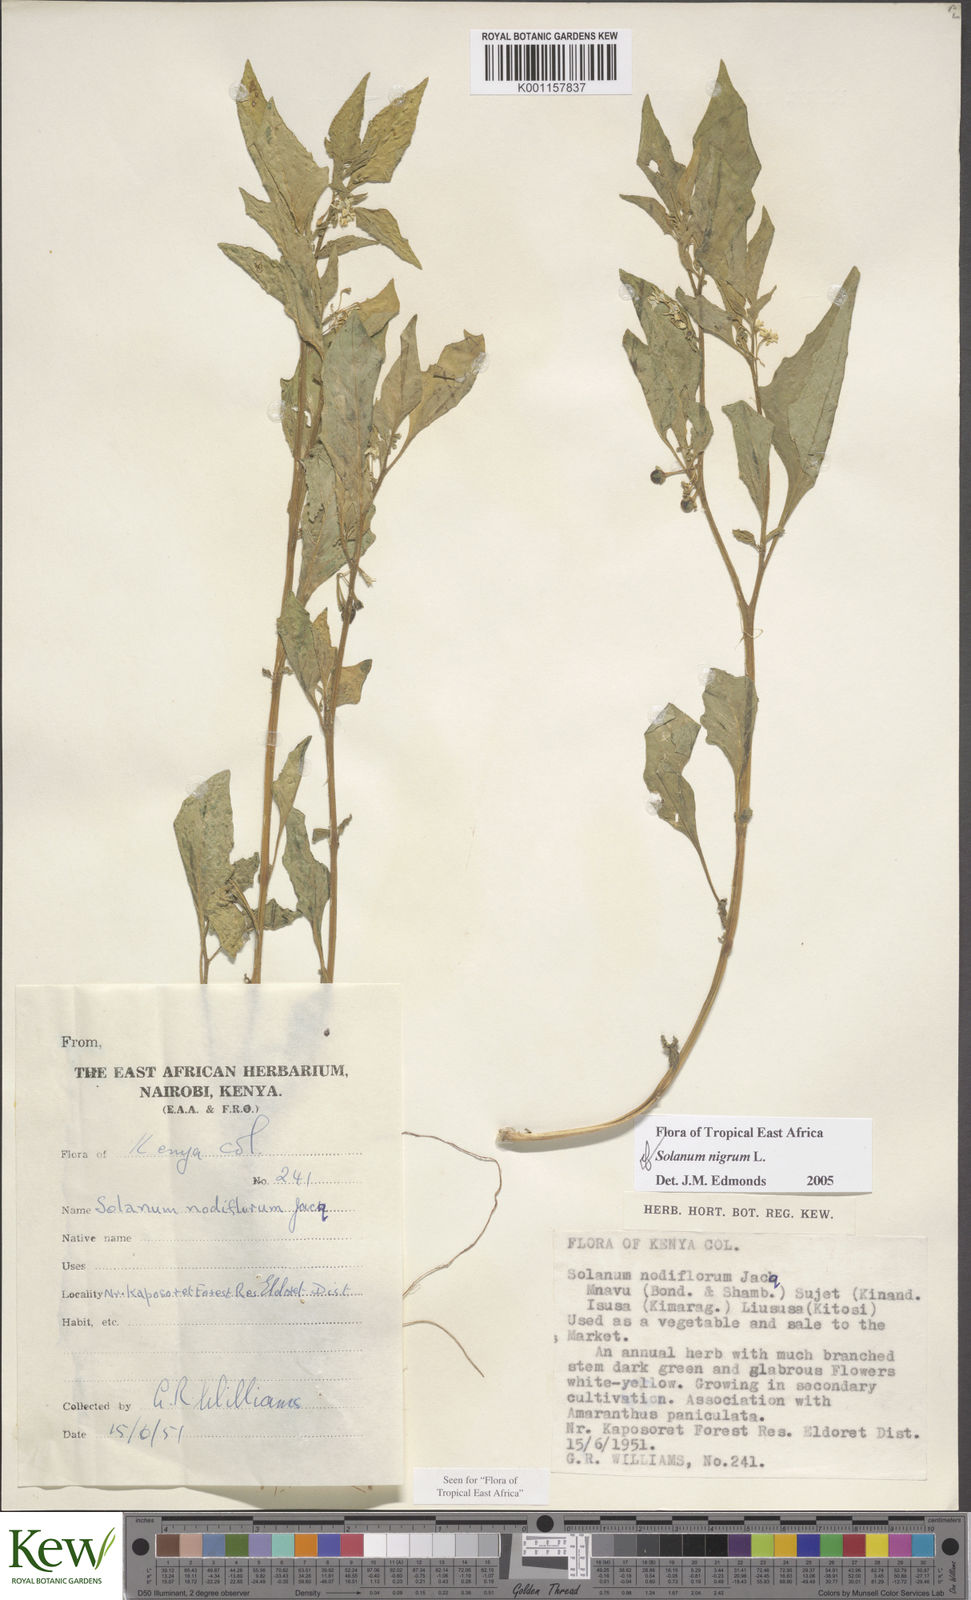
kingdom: Plantae
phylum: Tracheophyta
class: Magnoliopsida
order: Solanales
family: Solanaceae
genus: Solanum
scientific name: Solanum nigrum
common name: Black nightshade
